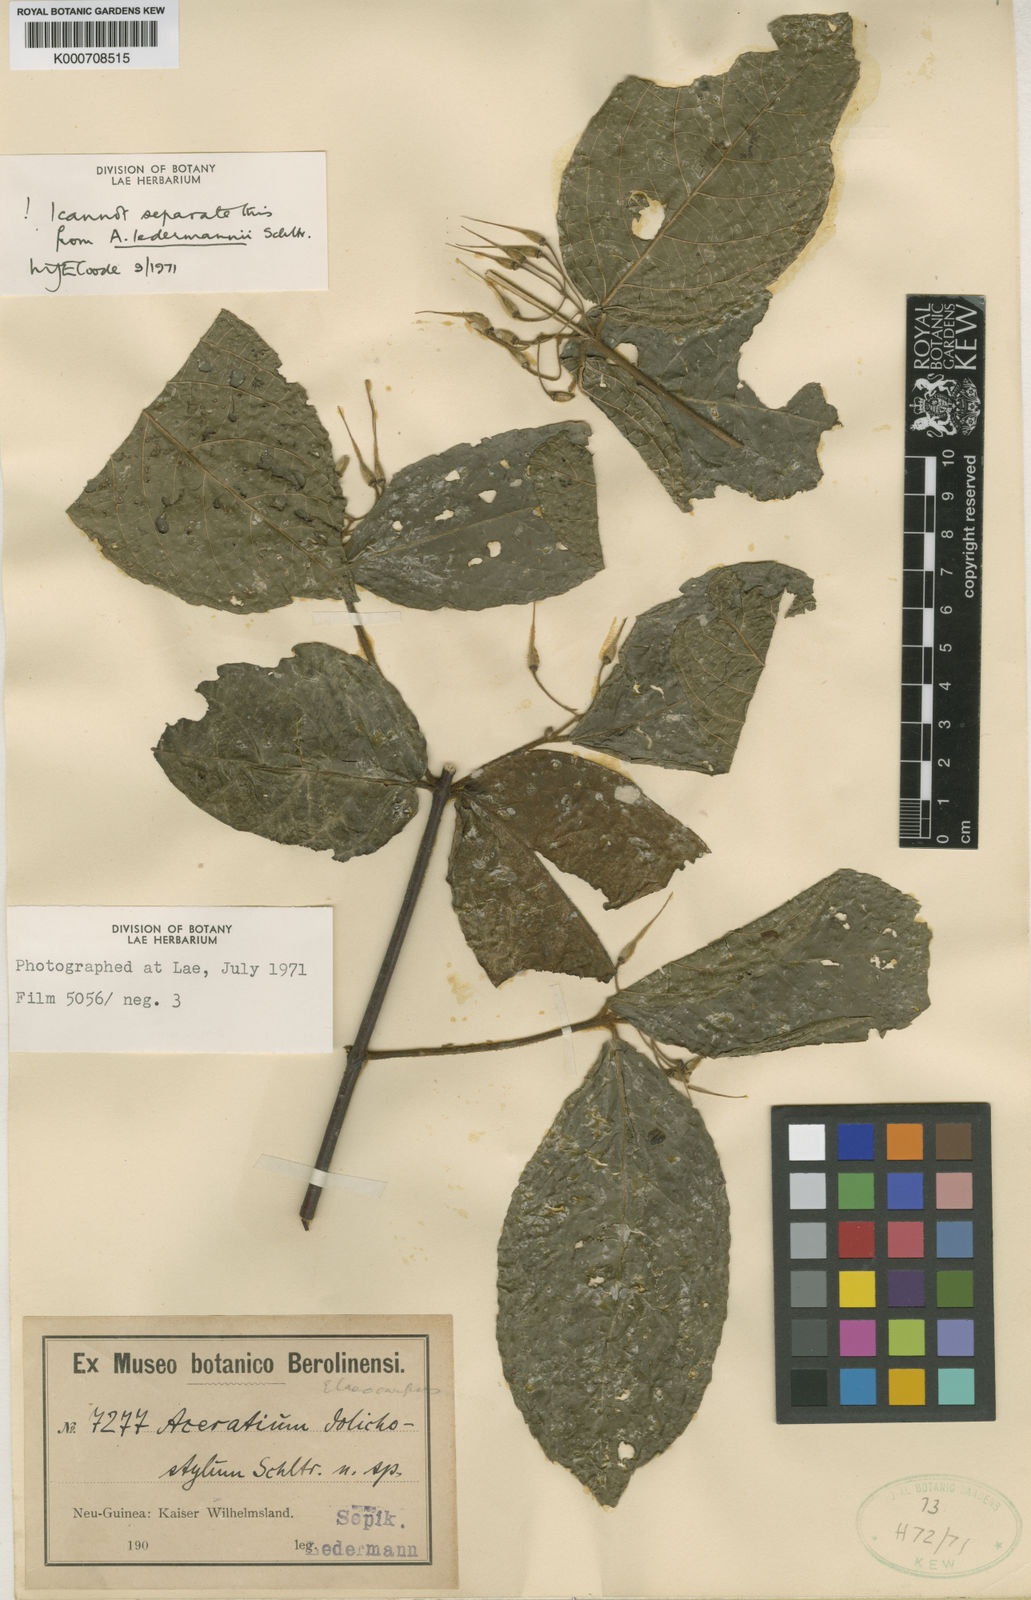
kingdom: Plantae
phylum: Tracheophyta
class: Magnoliopsida
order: Oxalidales
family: Elaeocarpaceae
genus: Aceratium
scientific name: Aceratium ledermannii
